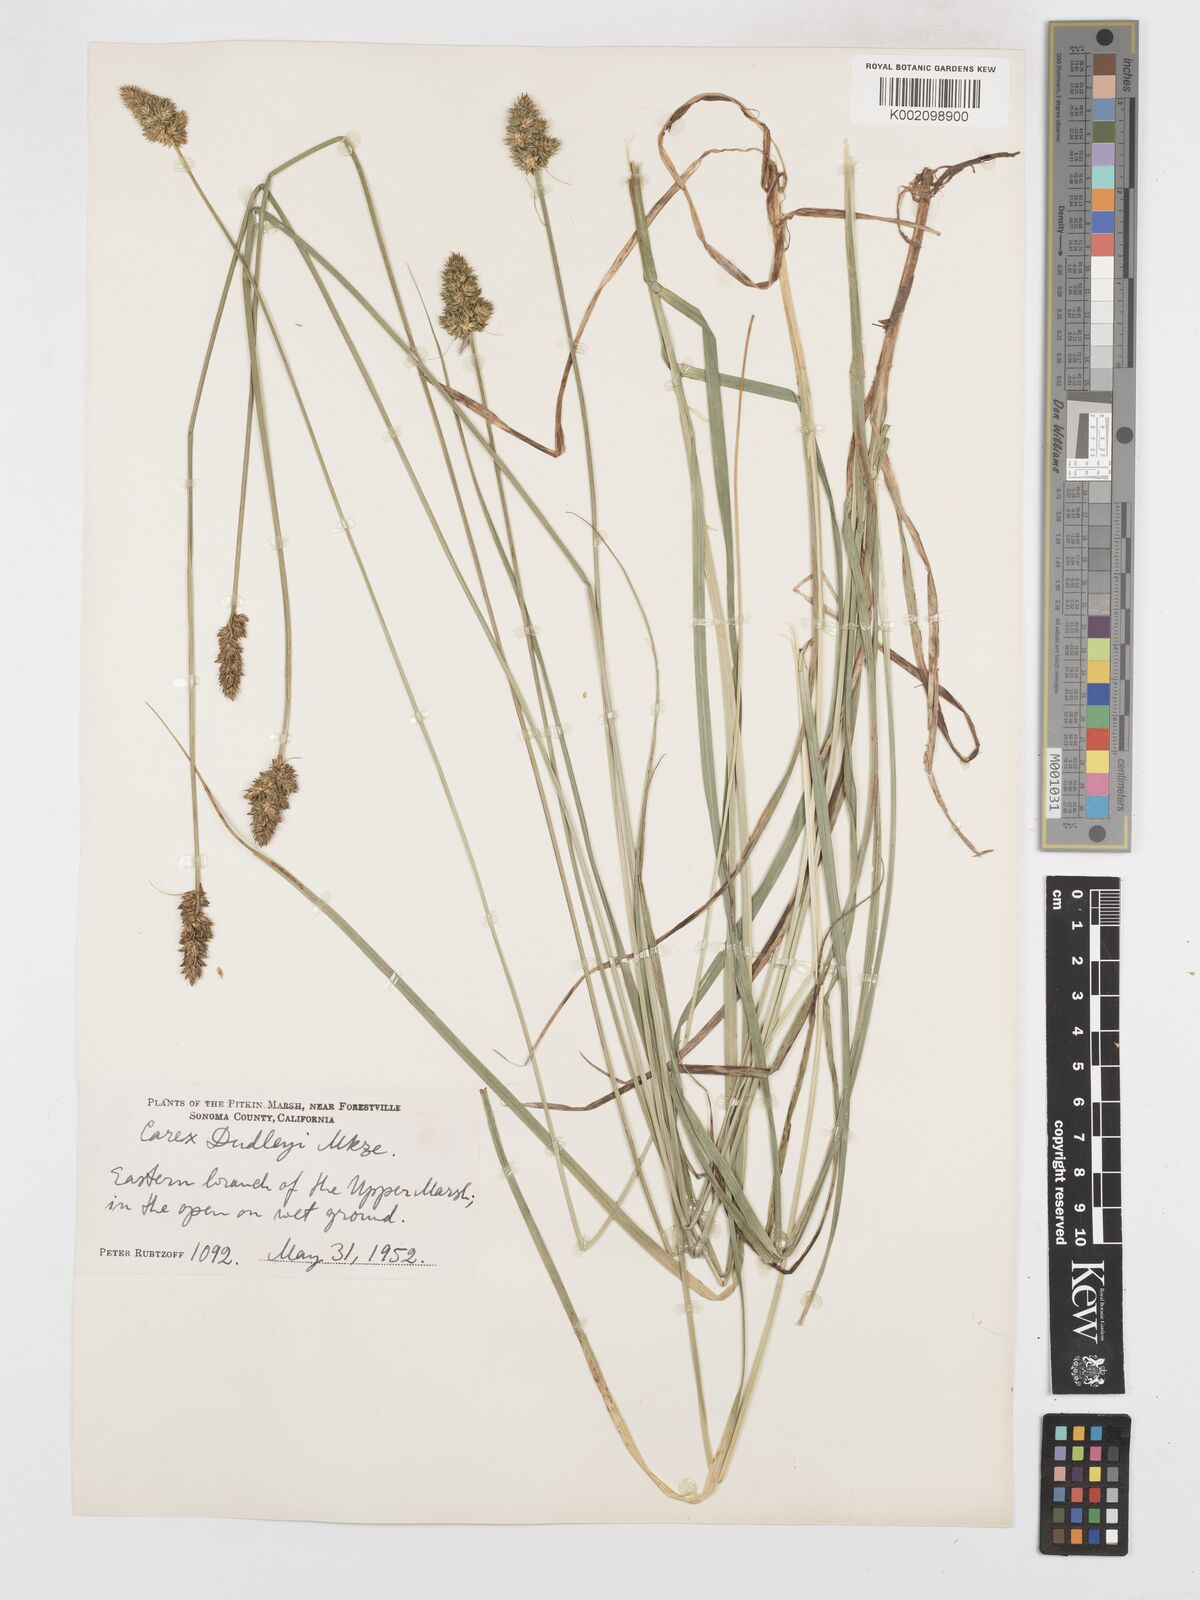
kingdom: Plantae
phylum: Tracheophyta
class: Liliopsida
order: Poales
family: Cyperaceae
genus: Carex
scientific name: Carex densa
